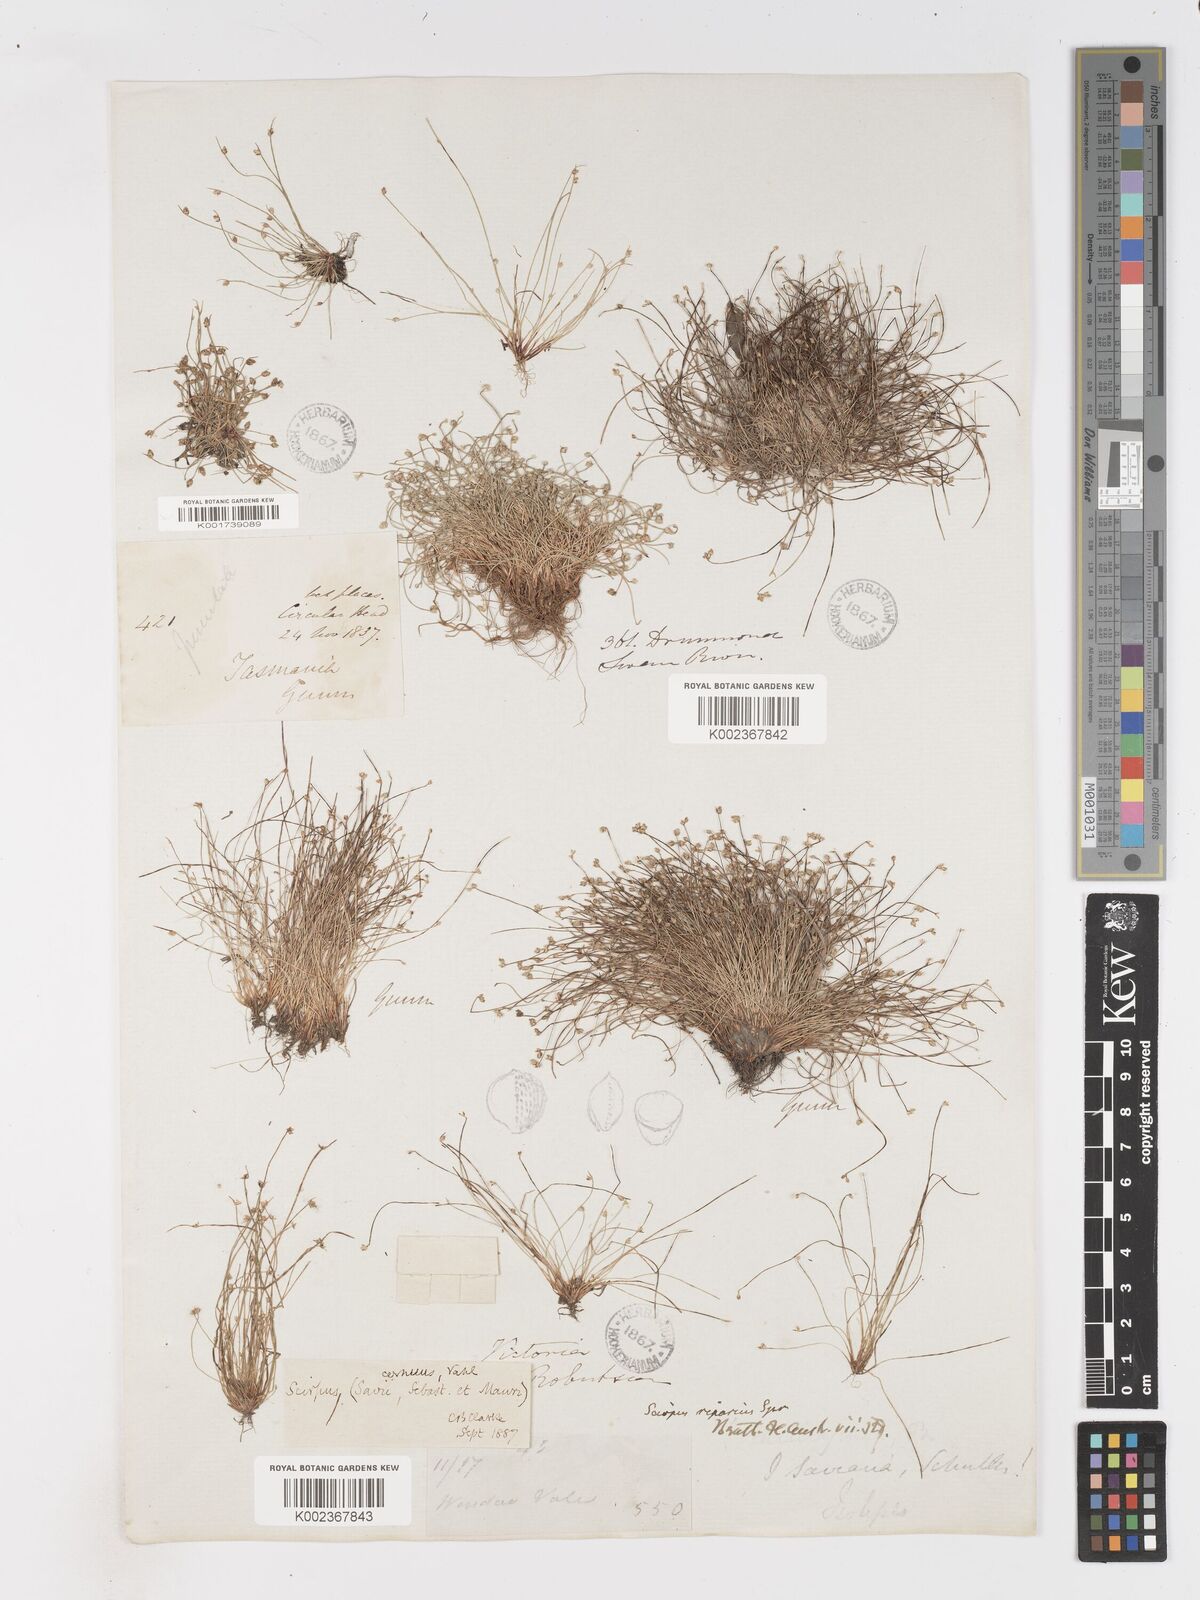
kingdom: Plantae
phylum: Tracheophyta
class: Liliopsida
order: Poales
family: Cyperaceae
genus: Isolepis
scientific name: Isolepis cernua
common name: Slender club-rush
